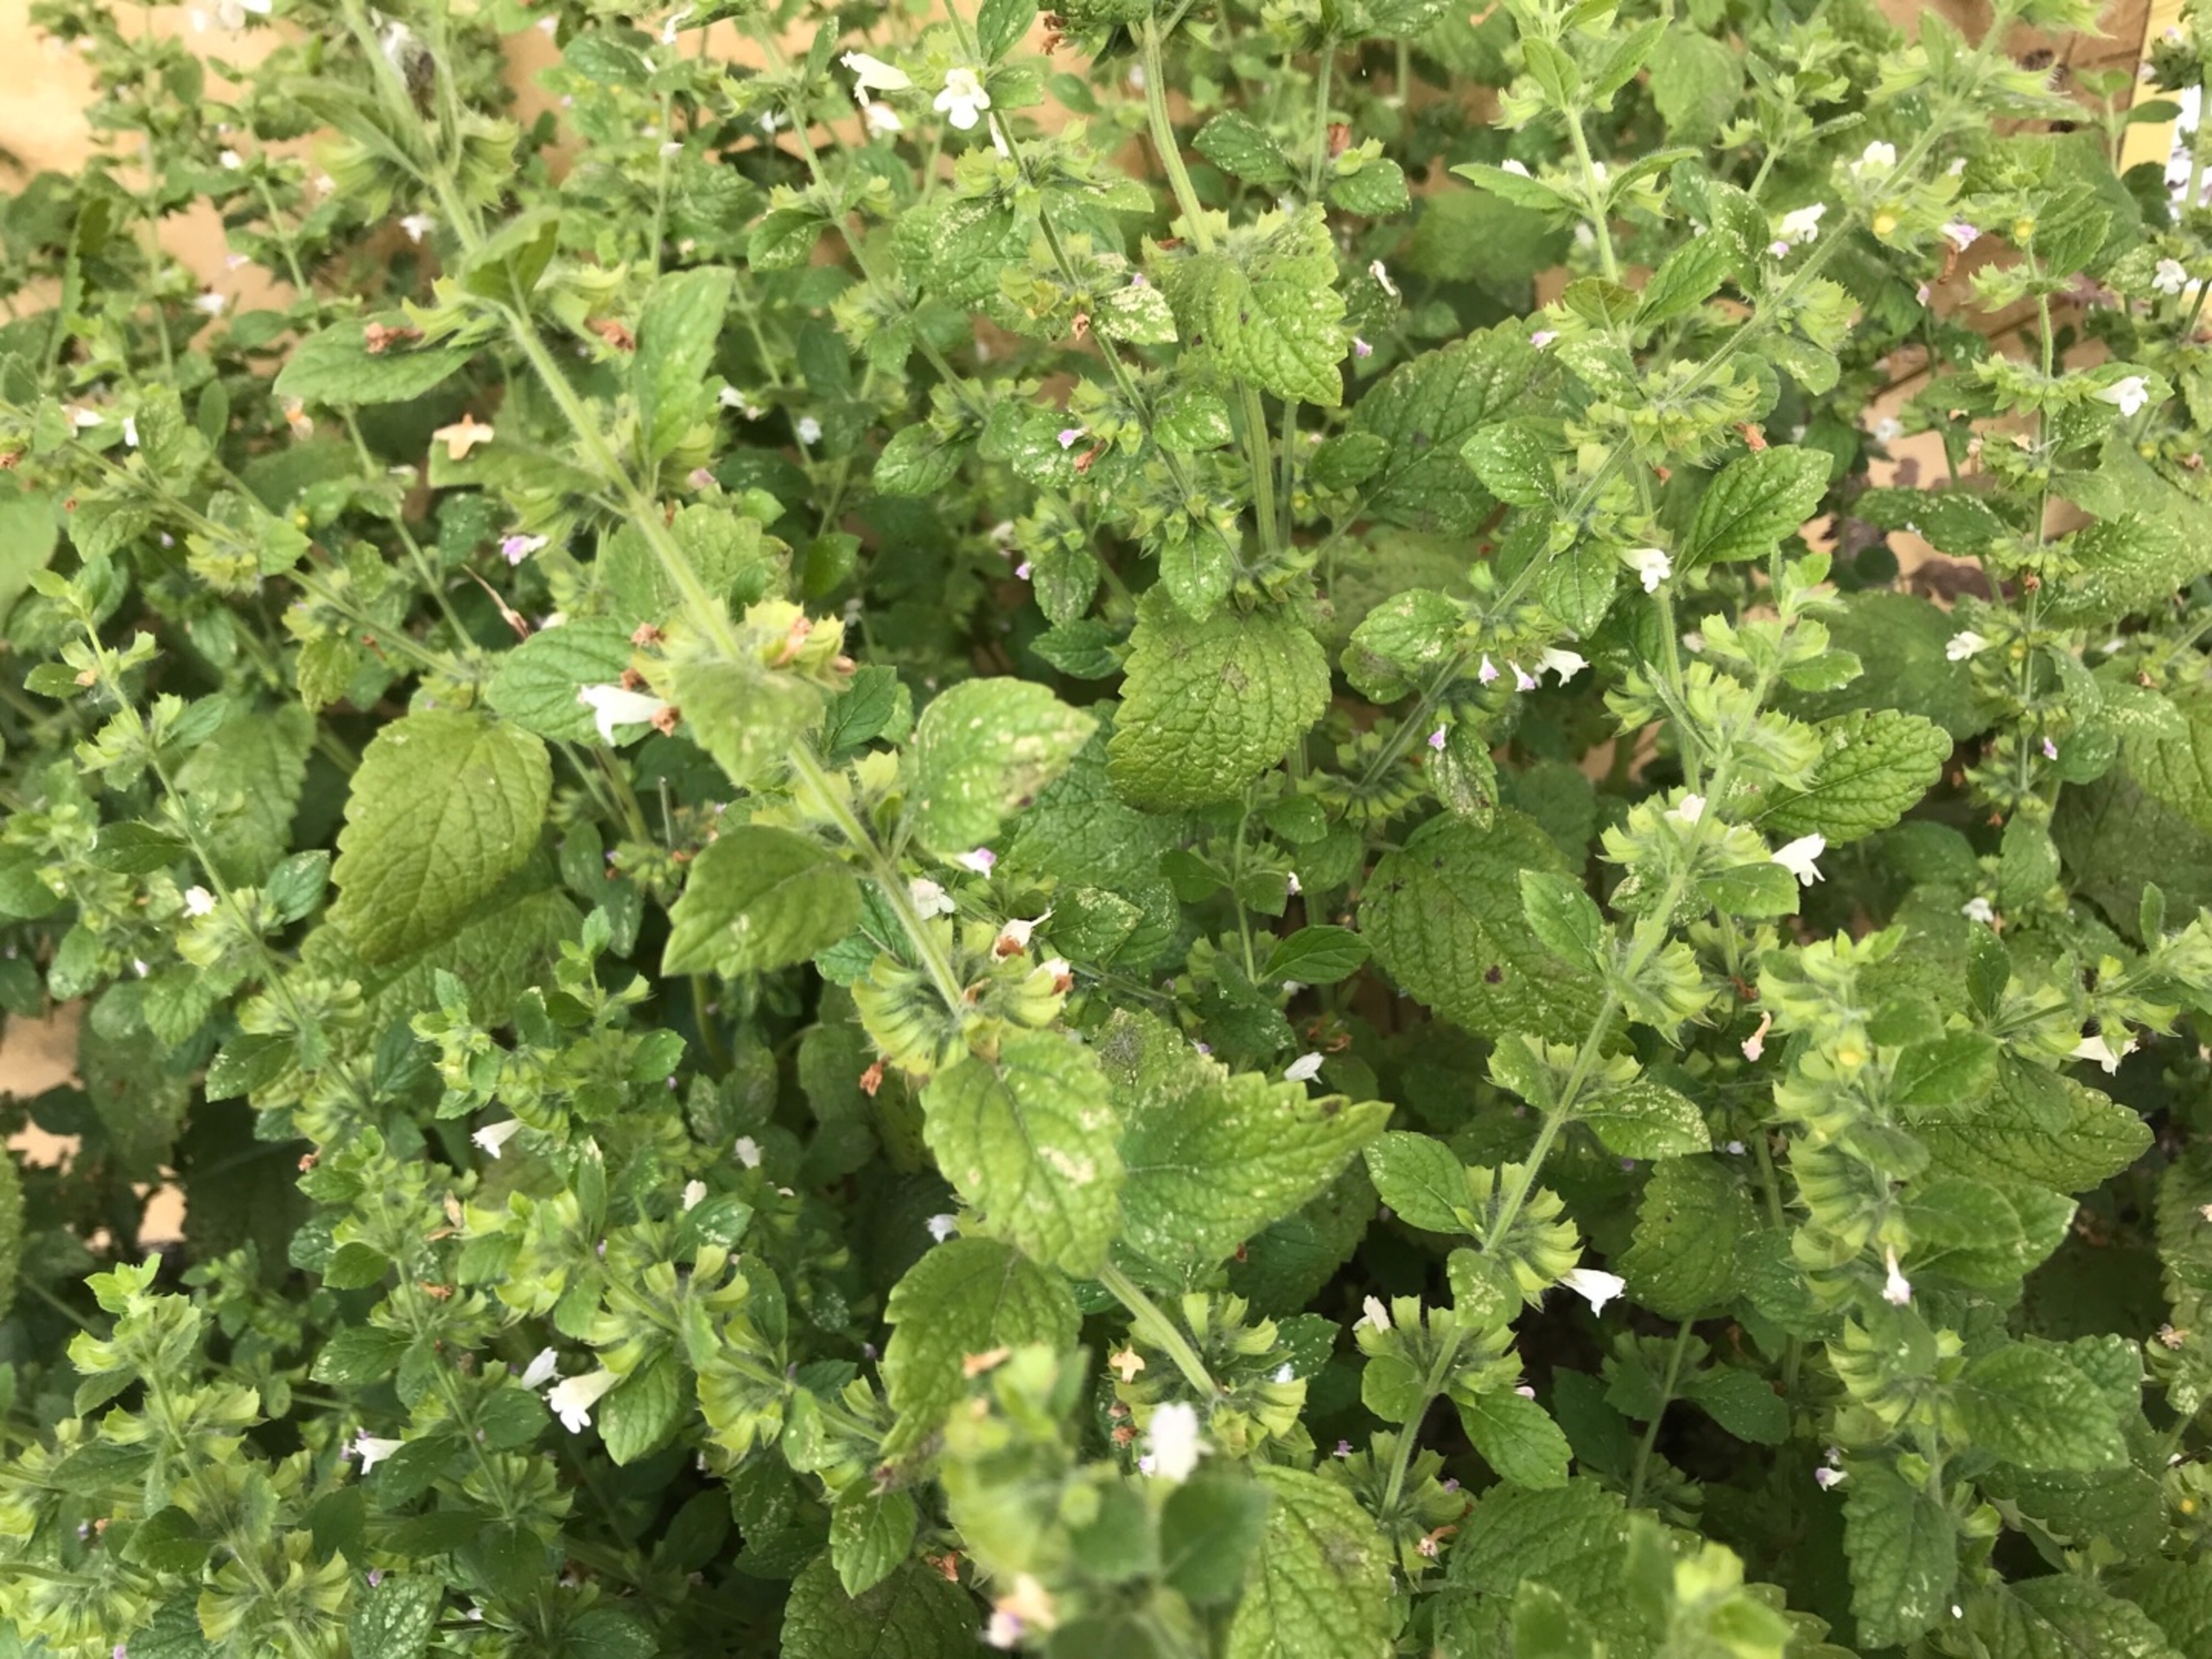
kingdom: Plantae
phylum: Tracheophyta
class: Magnoliopsida
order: Lamiales
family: Lamiaceae
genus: Melissa
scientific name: Melissa officinalis
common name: Citronmelisse
